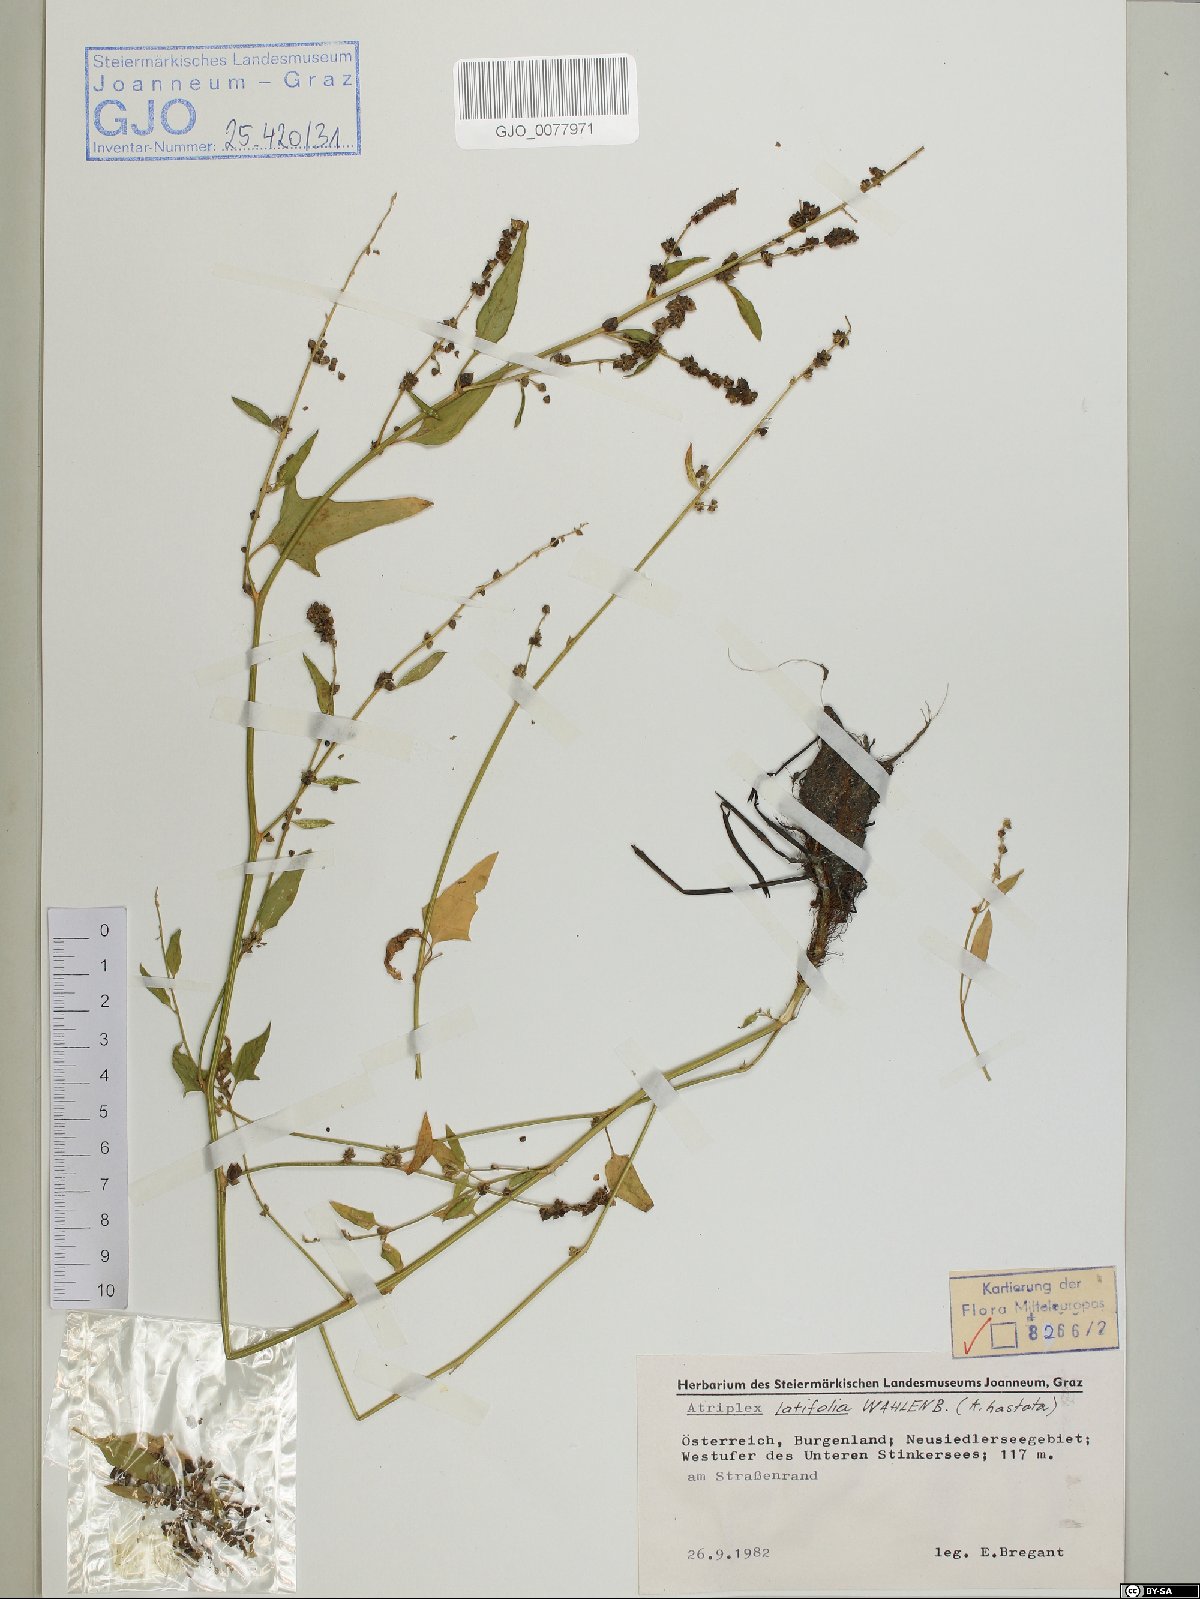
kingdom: Plantae
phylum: Tracheophyta
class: Magnoliopsida
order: Caryophyllales
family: Amaranthaceae
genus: Atriplex
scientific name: Atriplex prostrata
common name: Spear-leaved orache
